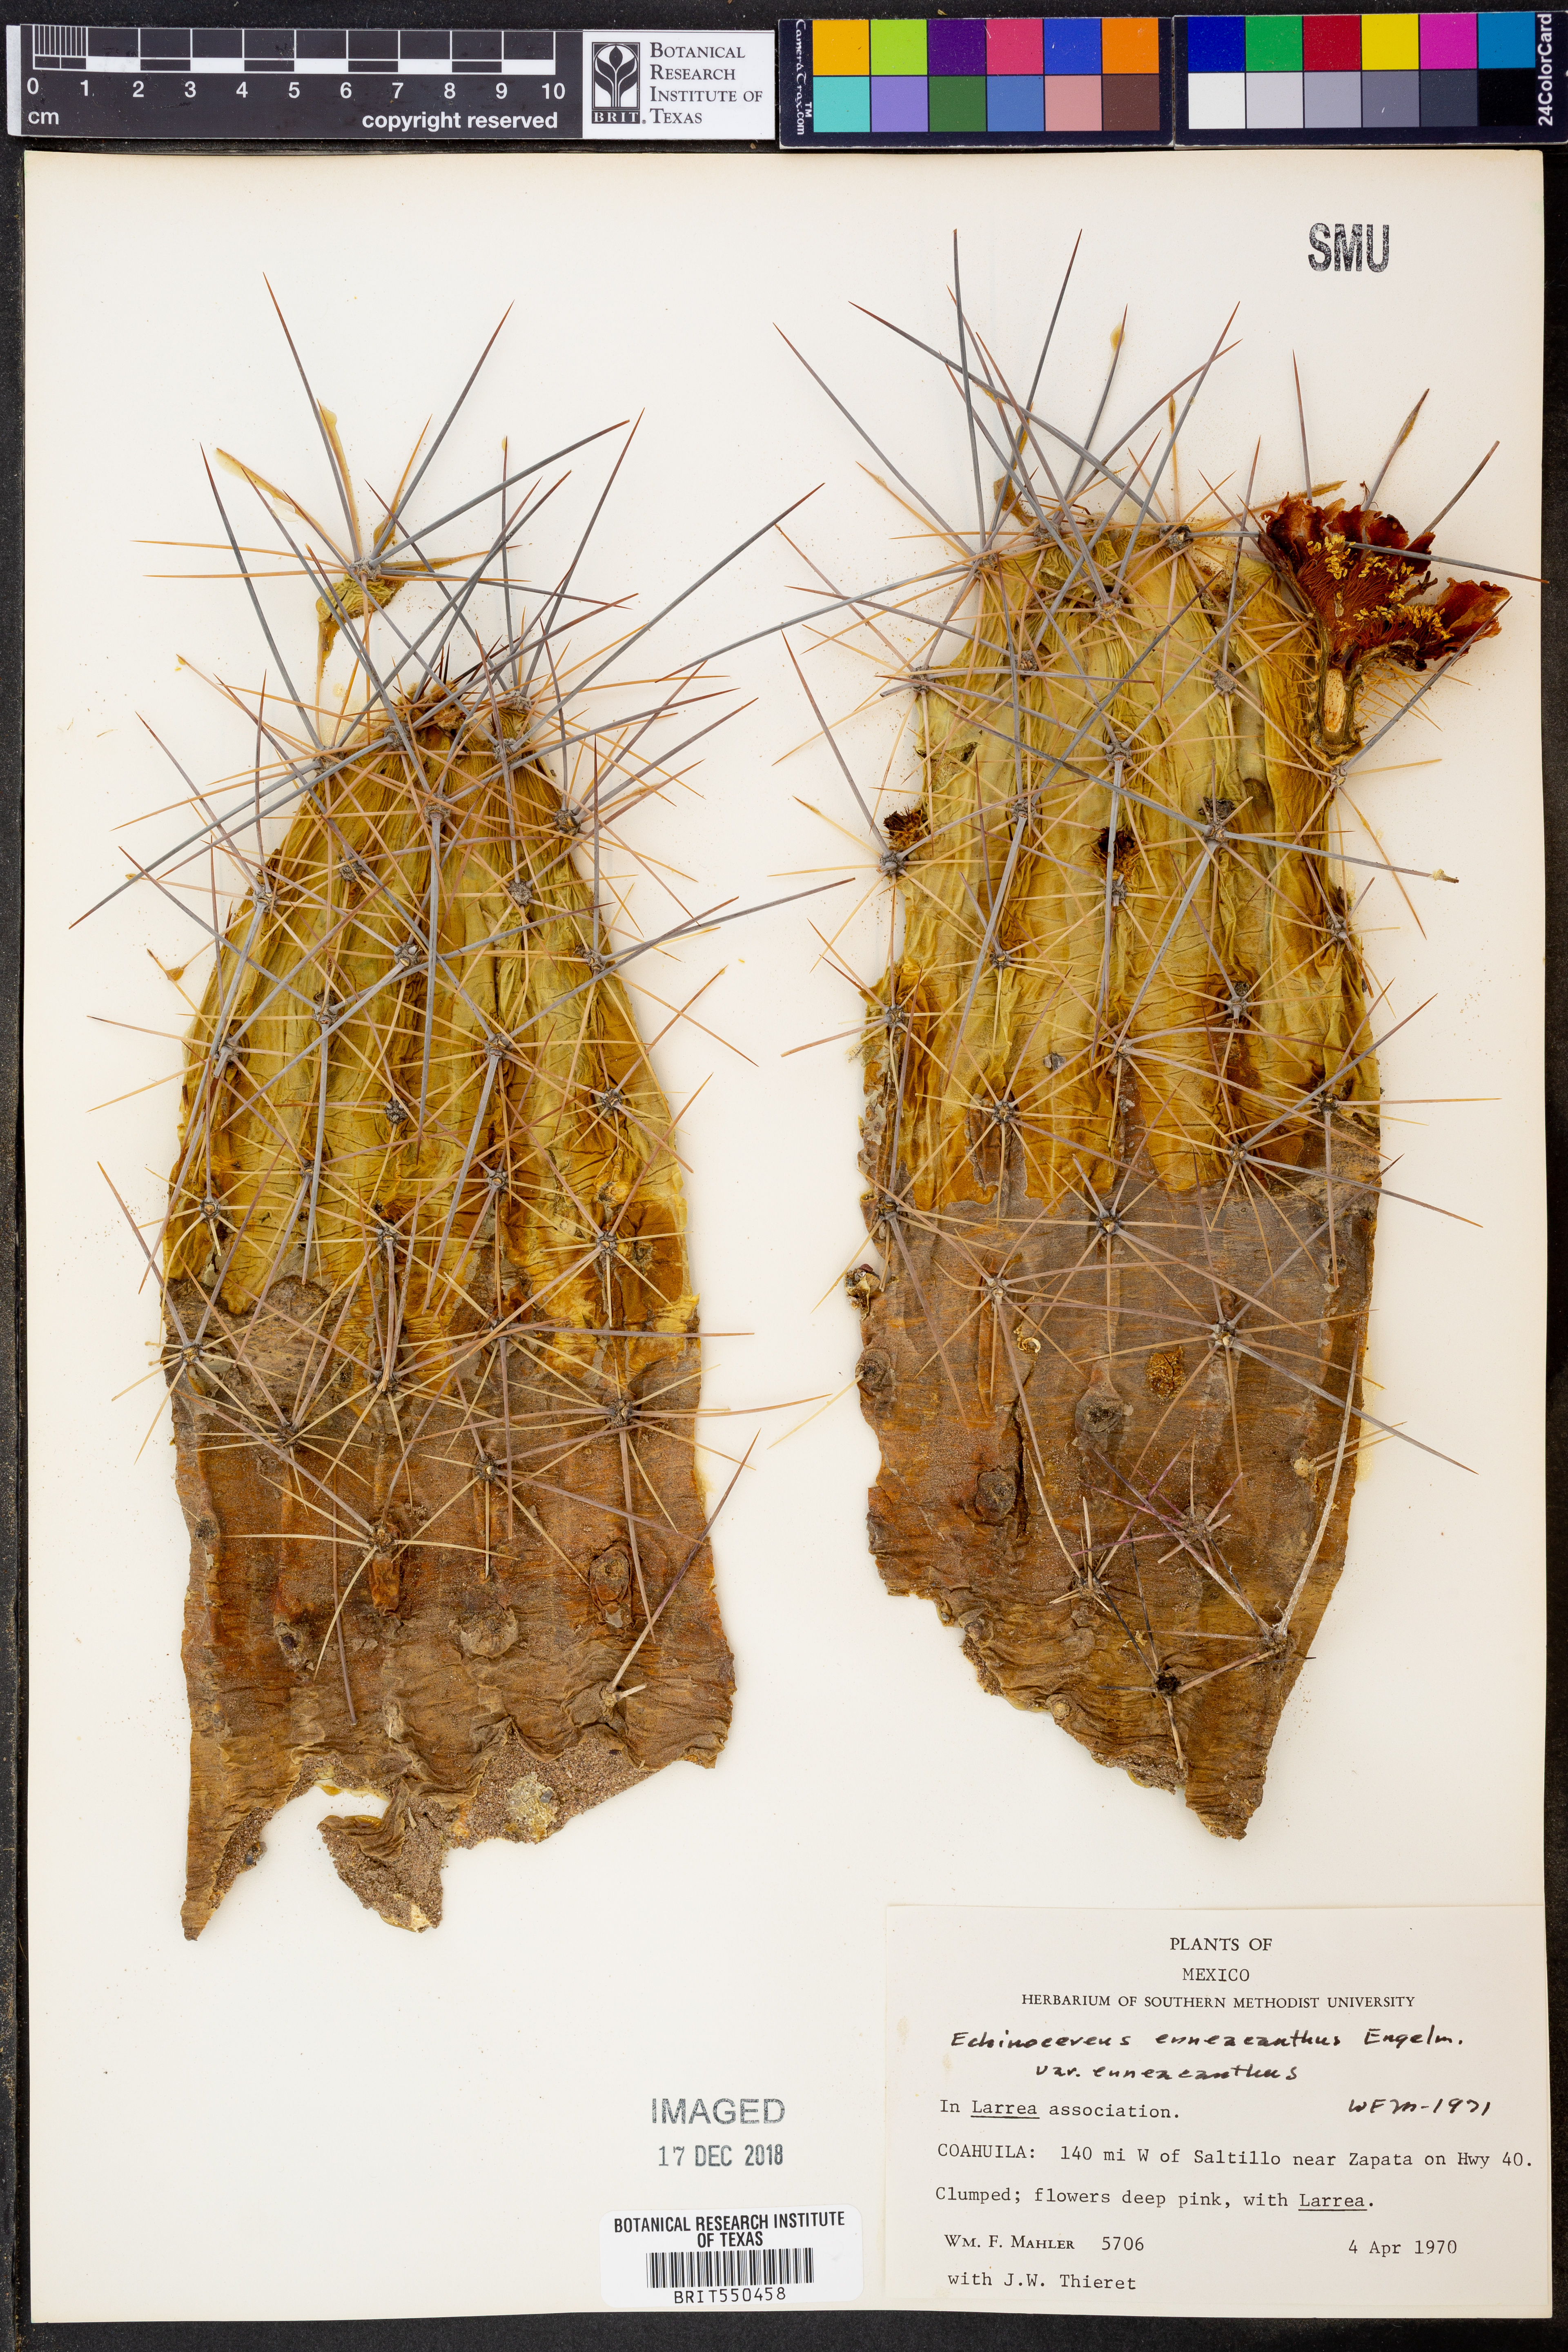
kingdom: Plantae
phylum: Tracheophyta
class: Magnoliopsida
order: Caryophyllales
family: Cactaceae
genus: Echinocereus
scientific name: Echinocereus enneacanthus
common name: Pitaya
